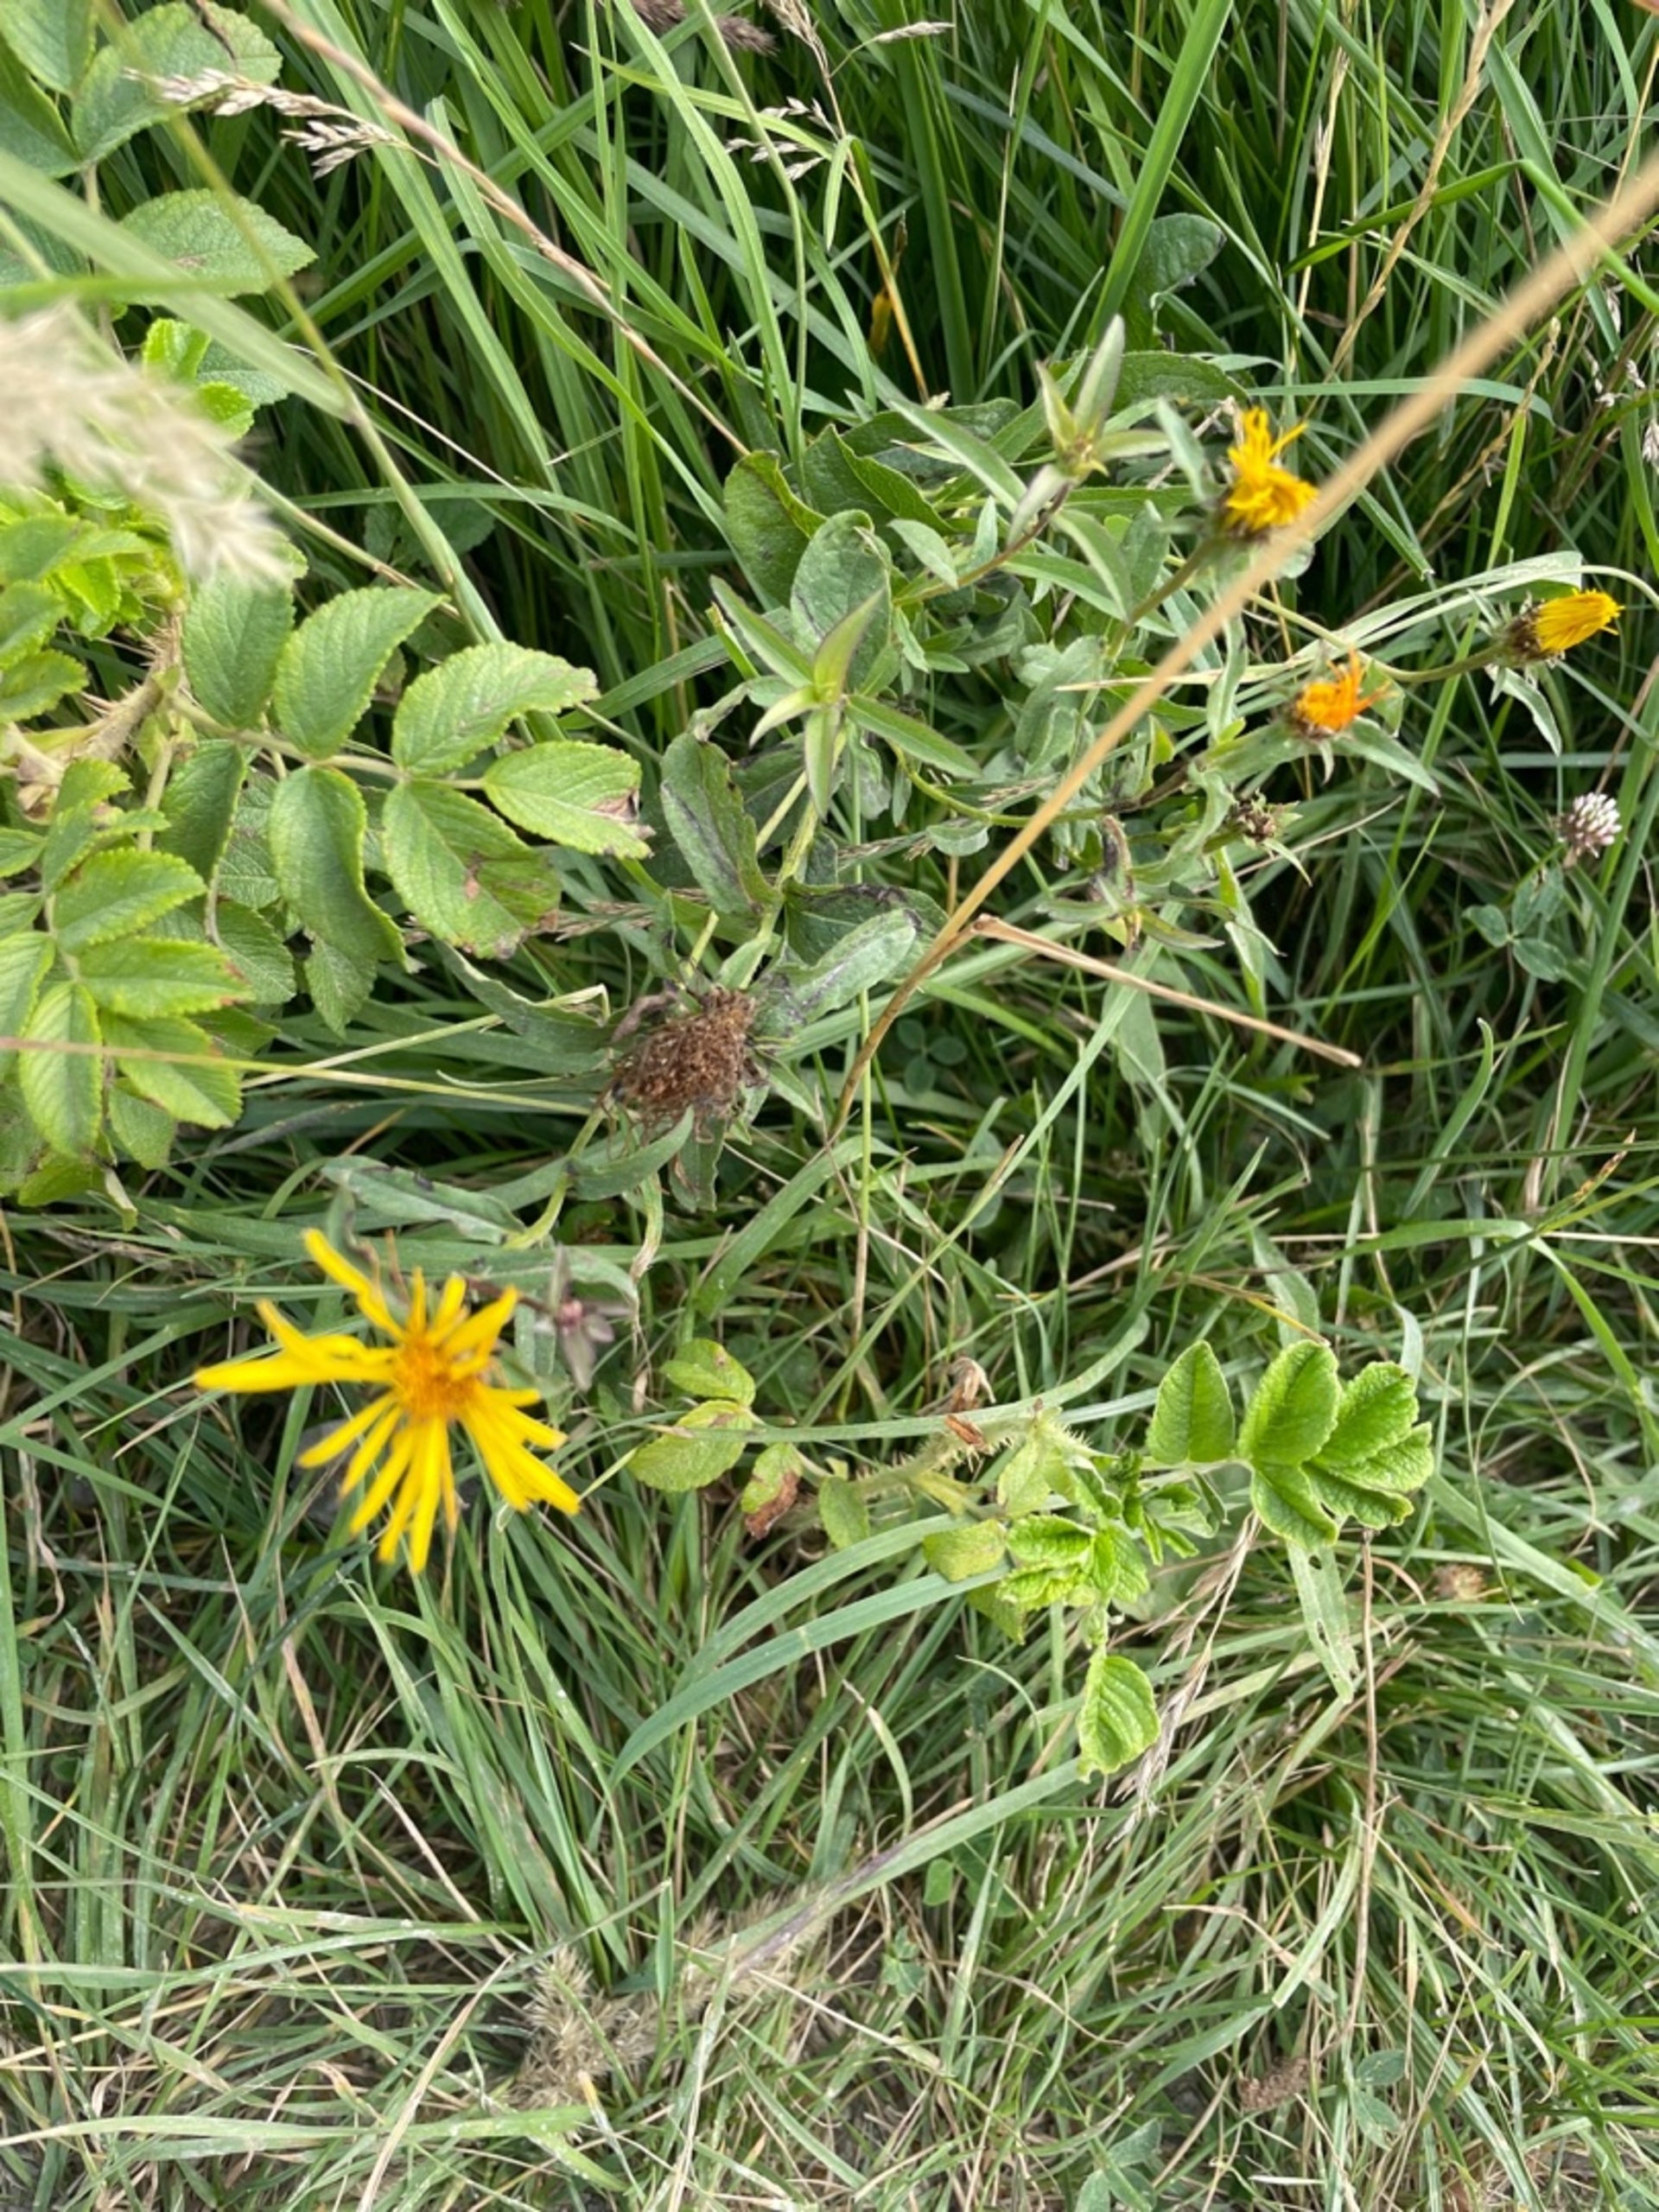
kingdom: Plantae
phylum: Tracheophyta
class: Magnoliopsida
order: Asterales
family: Asteraceae
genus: Pentanema
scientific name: Pentanema salicinum
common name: Pile-alant
